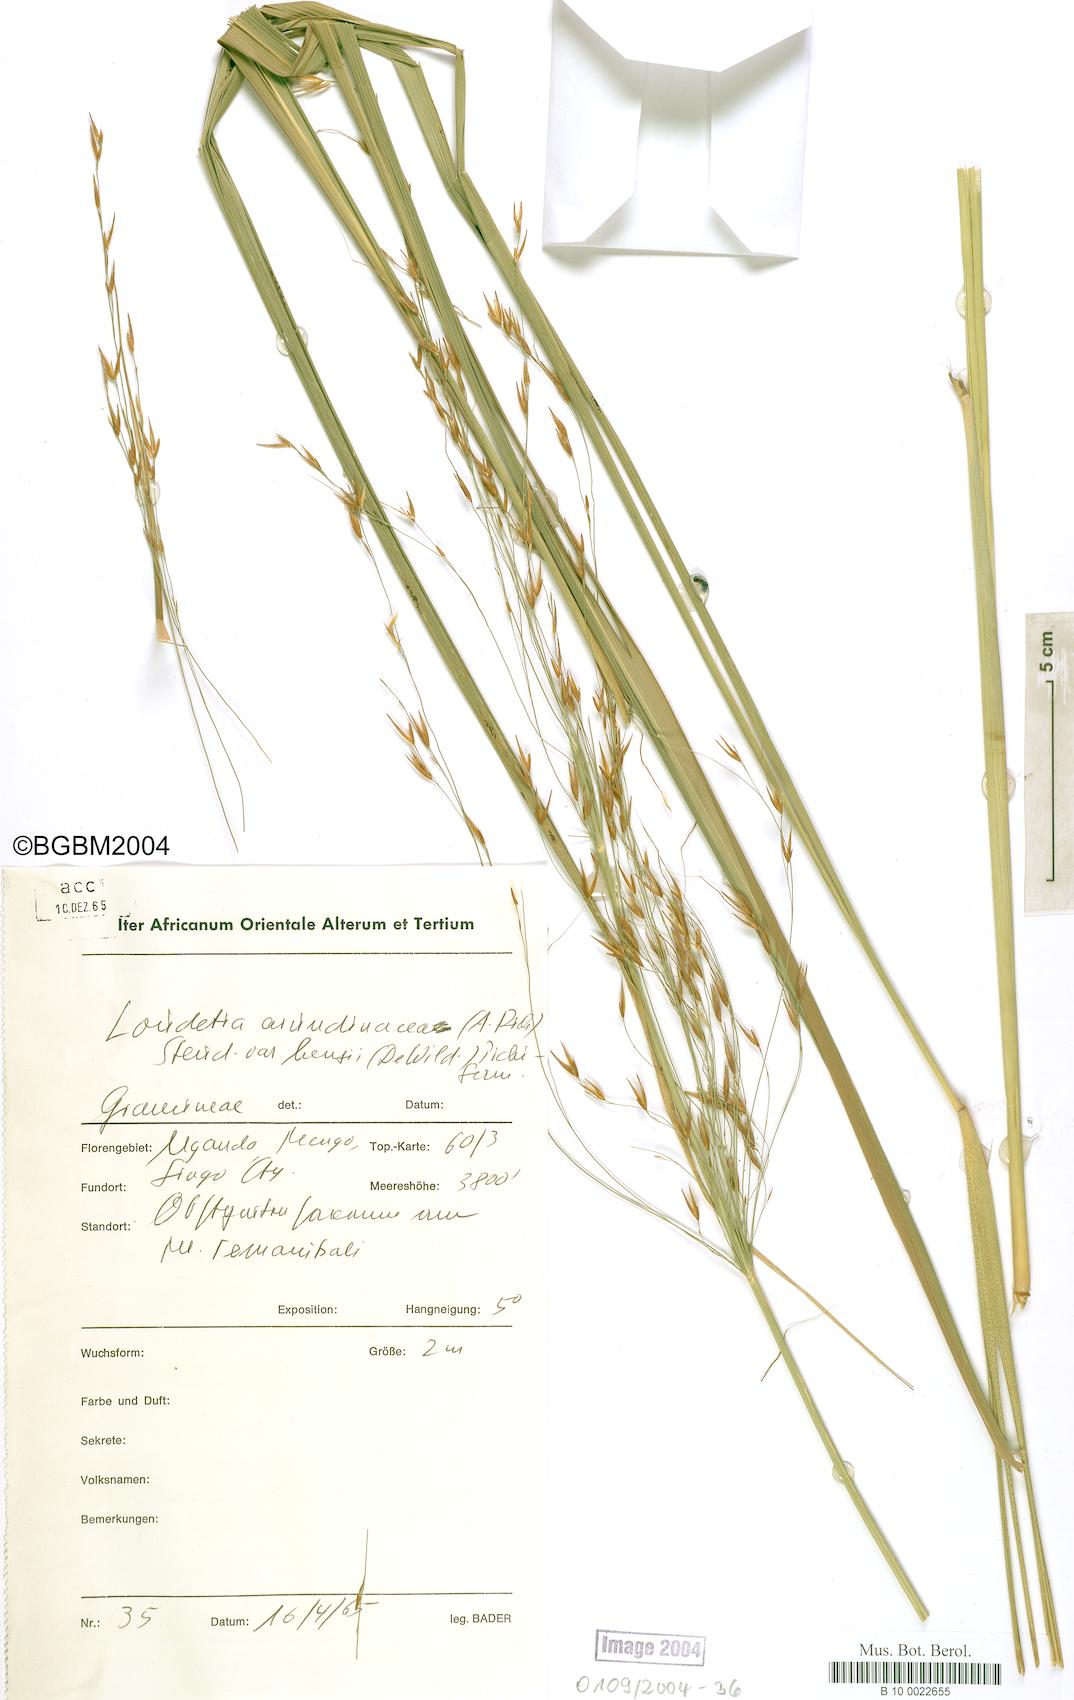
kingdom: Plantae
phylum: Tracheophyta
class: Liliopsida
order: Poales
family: Poaceae
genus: Loudetia
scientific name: Loudetia arundinacea
